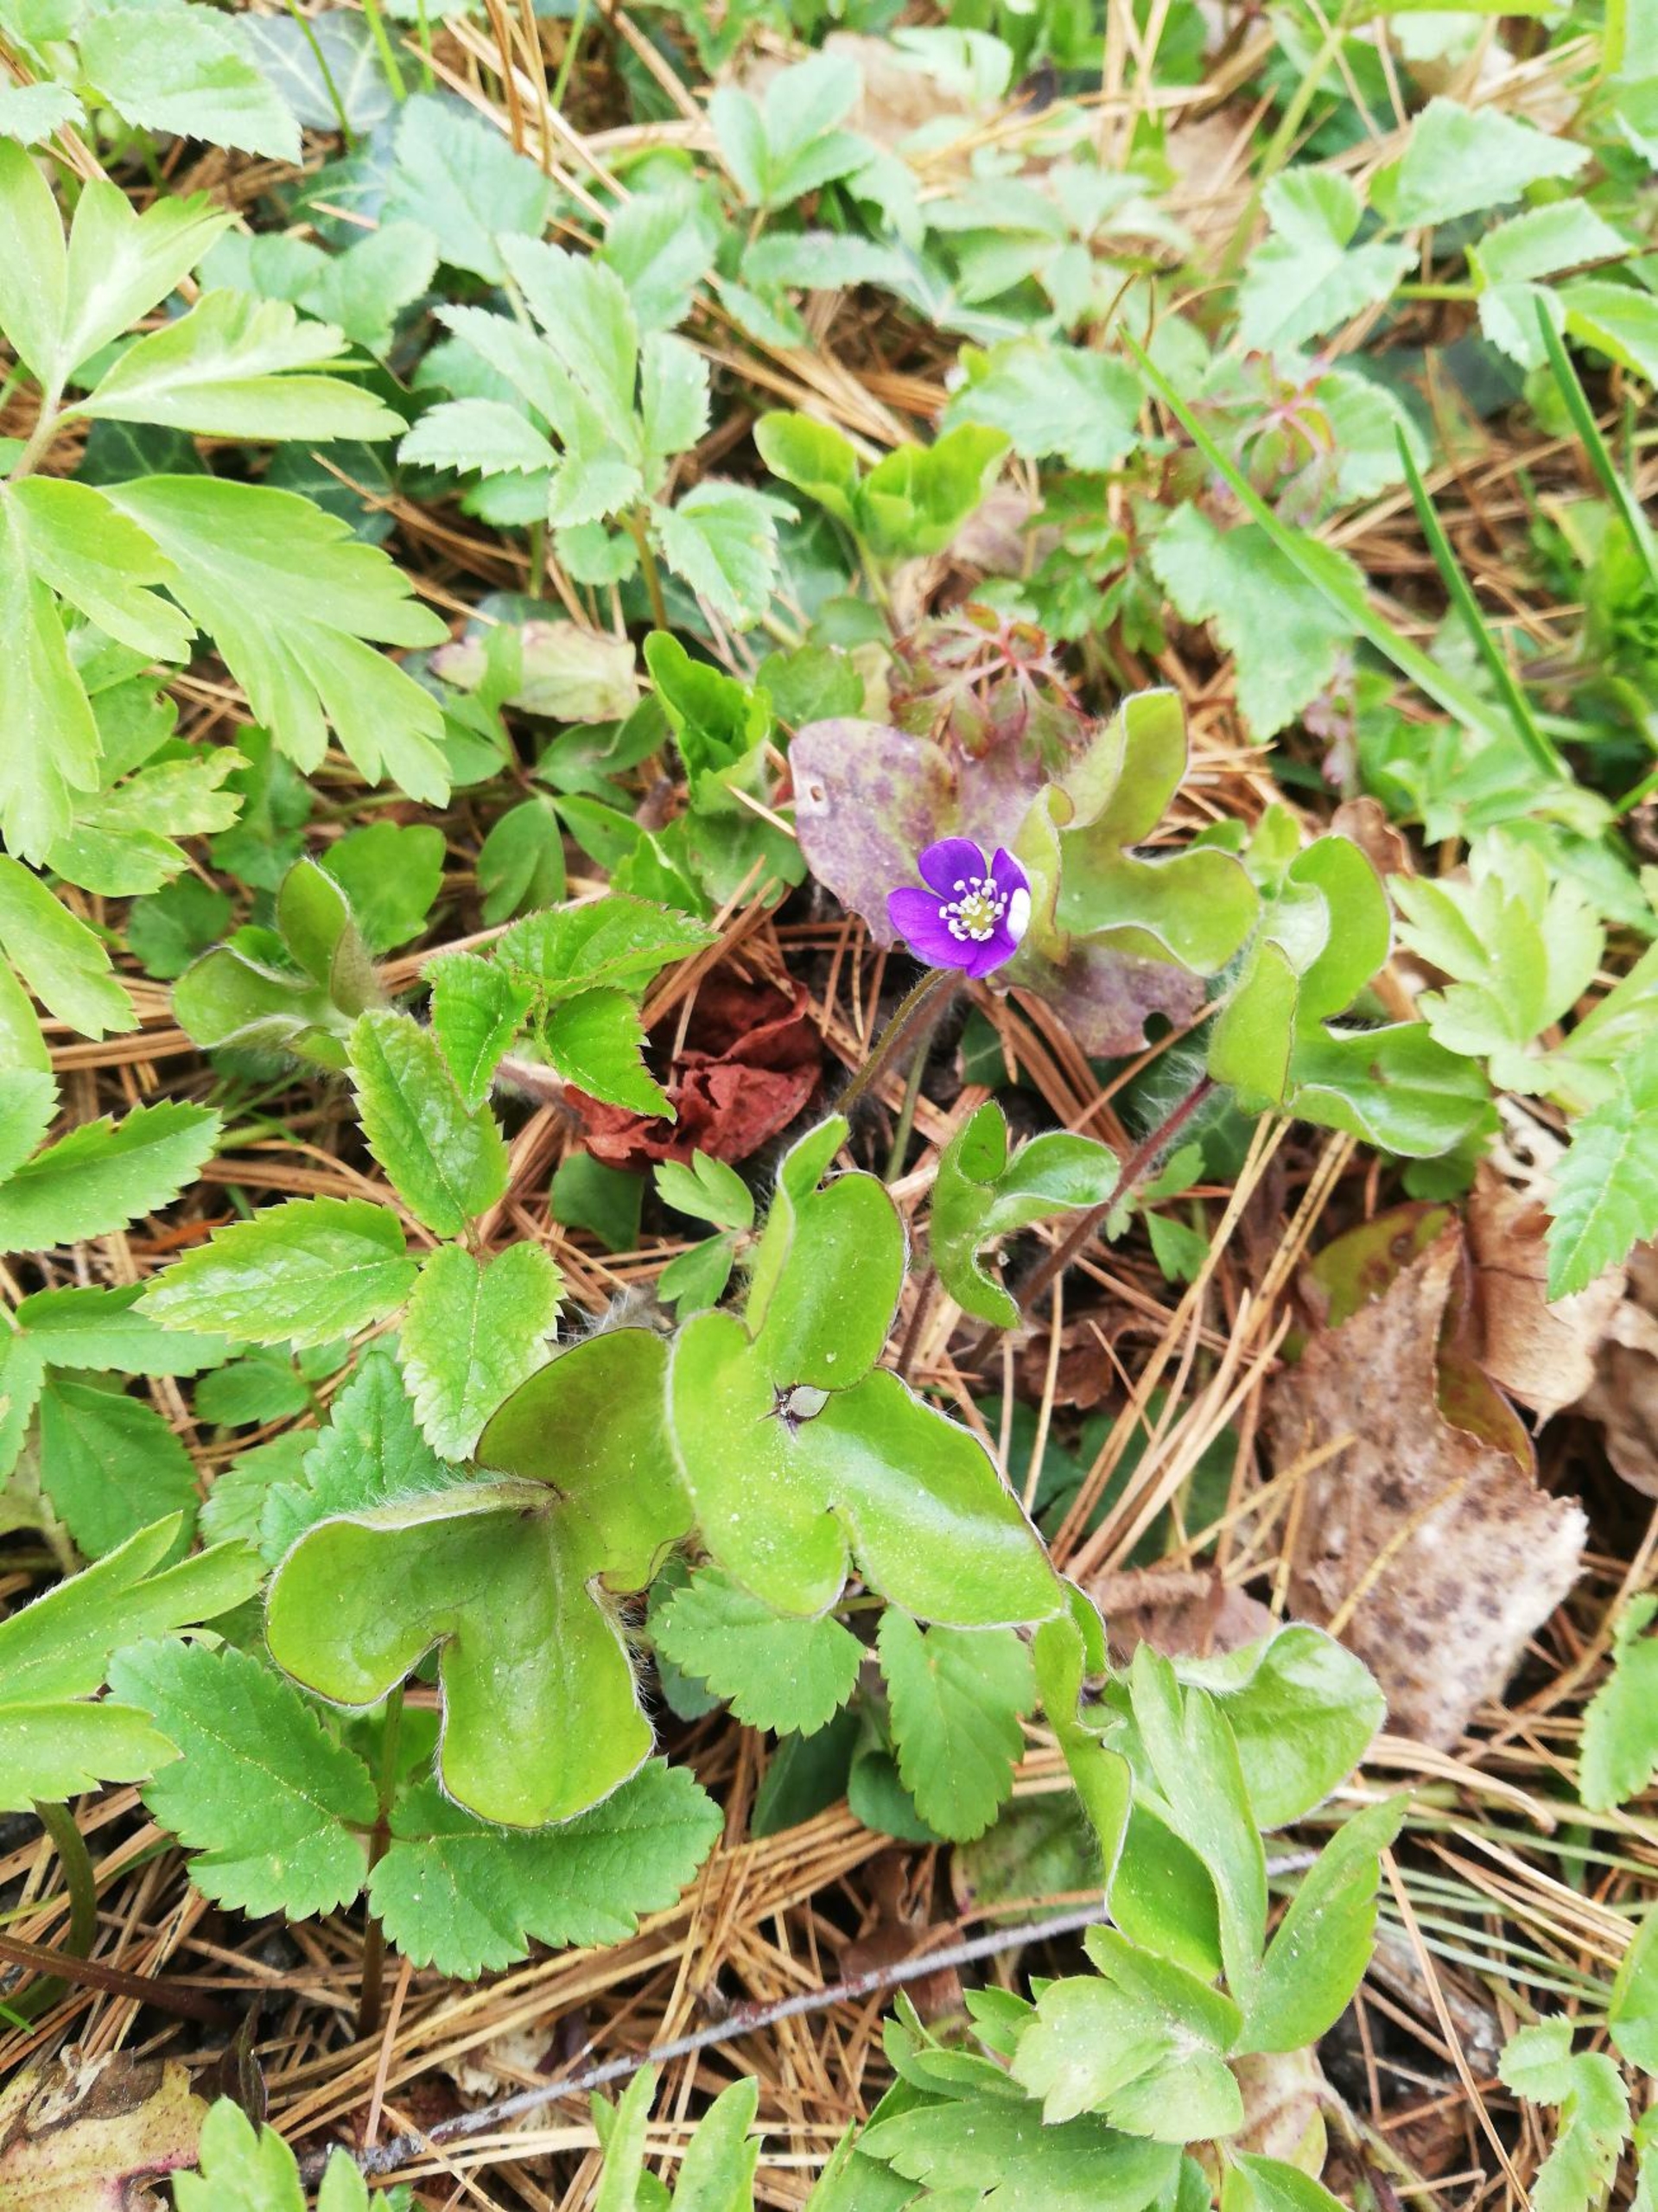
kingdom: Plantae
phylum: Tracheophyta
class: Magnoliopsida
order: Ranunculales
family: Ranunculaceae
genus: Hepatica
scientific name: Hepatica nobilis
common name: Blå anemone
